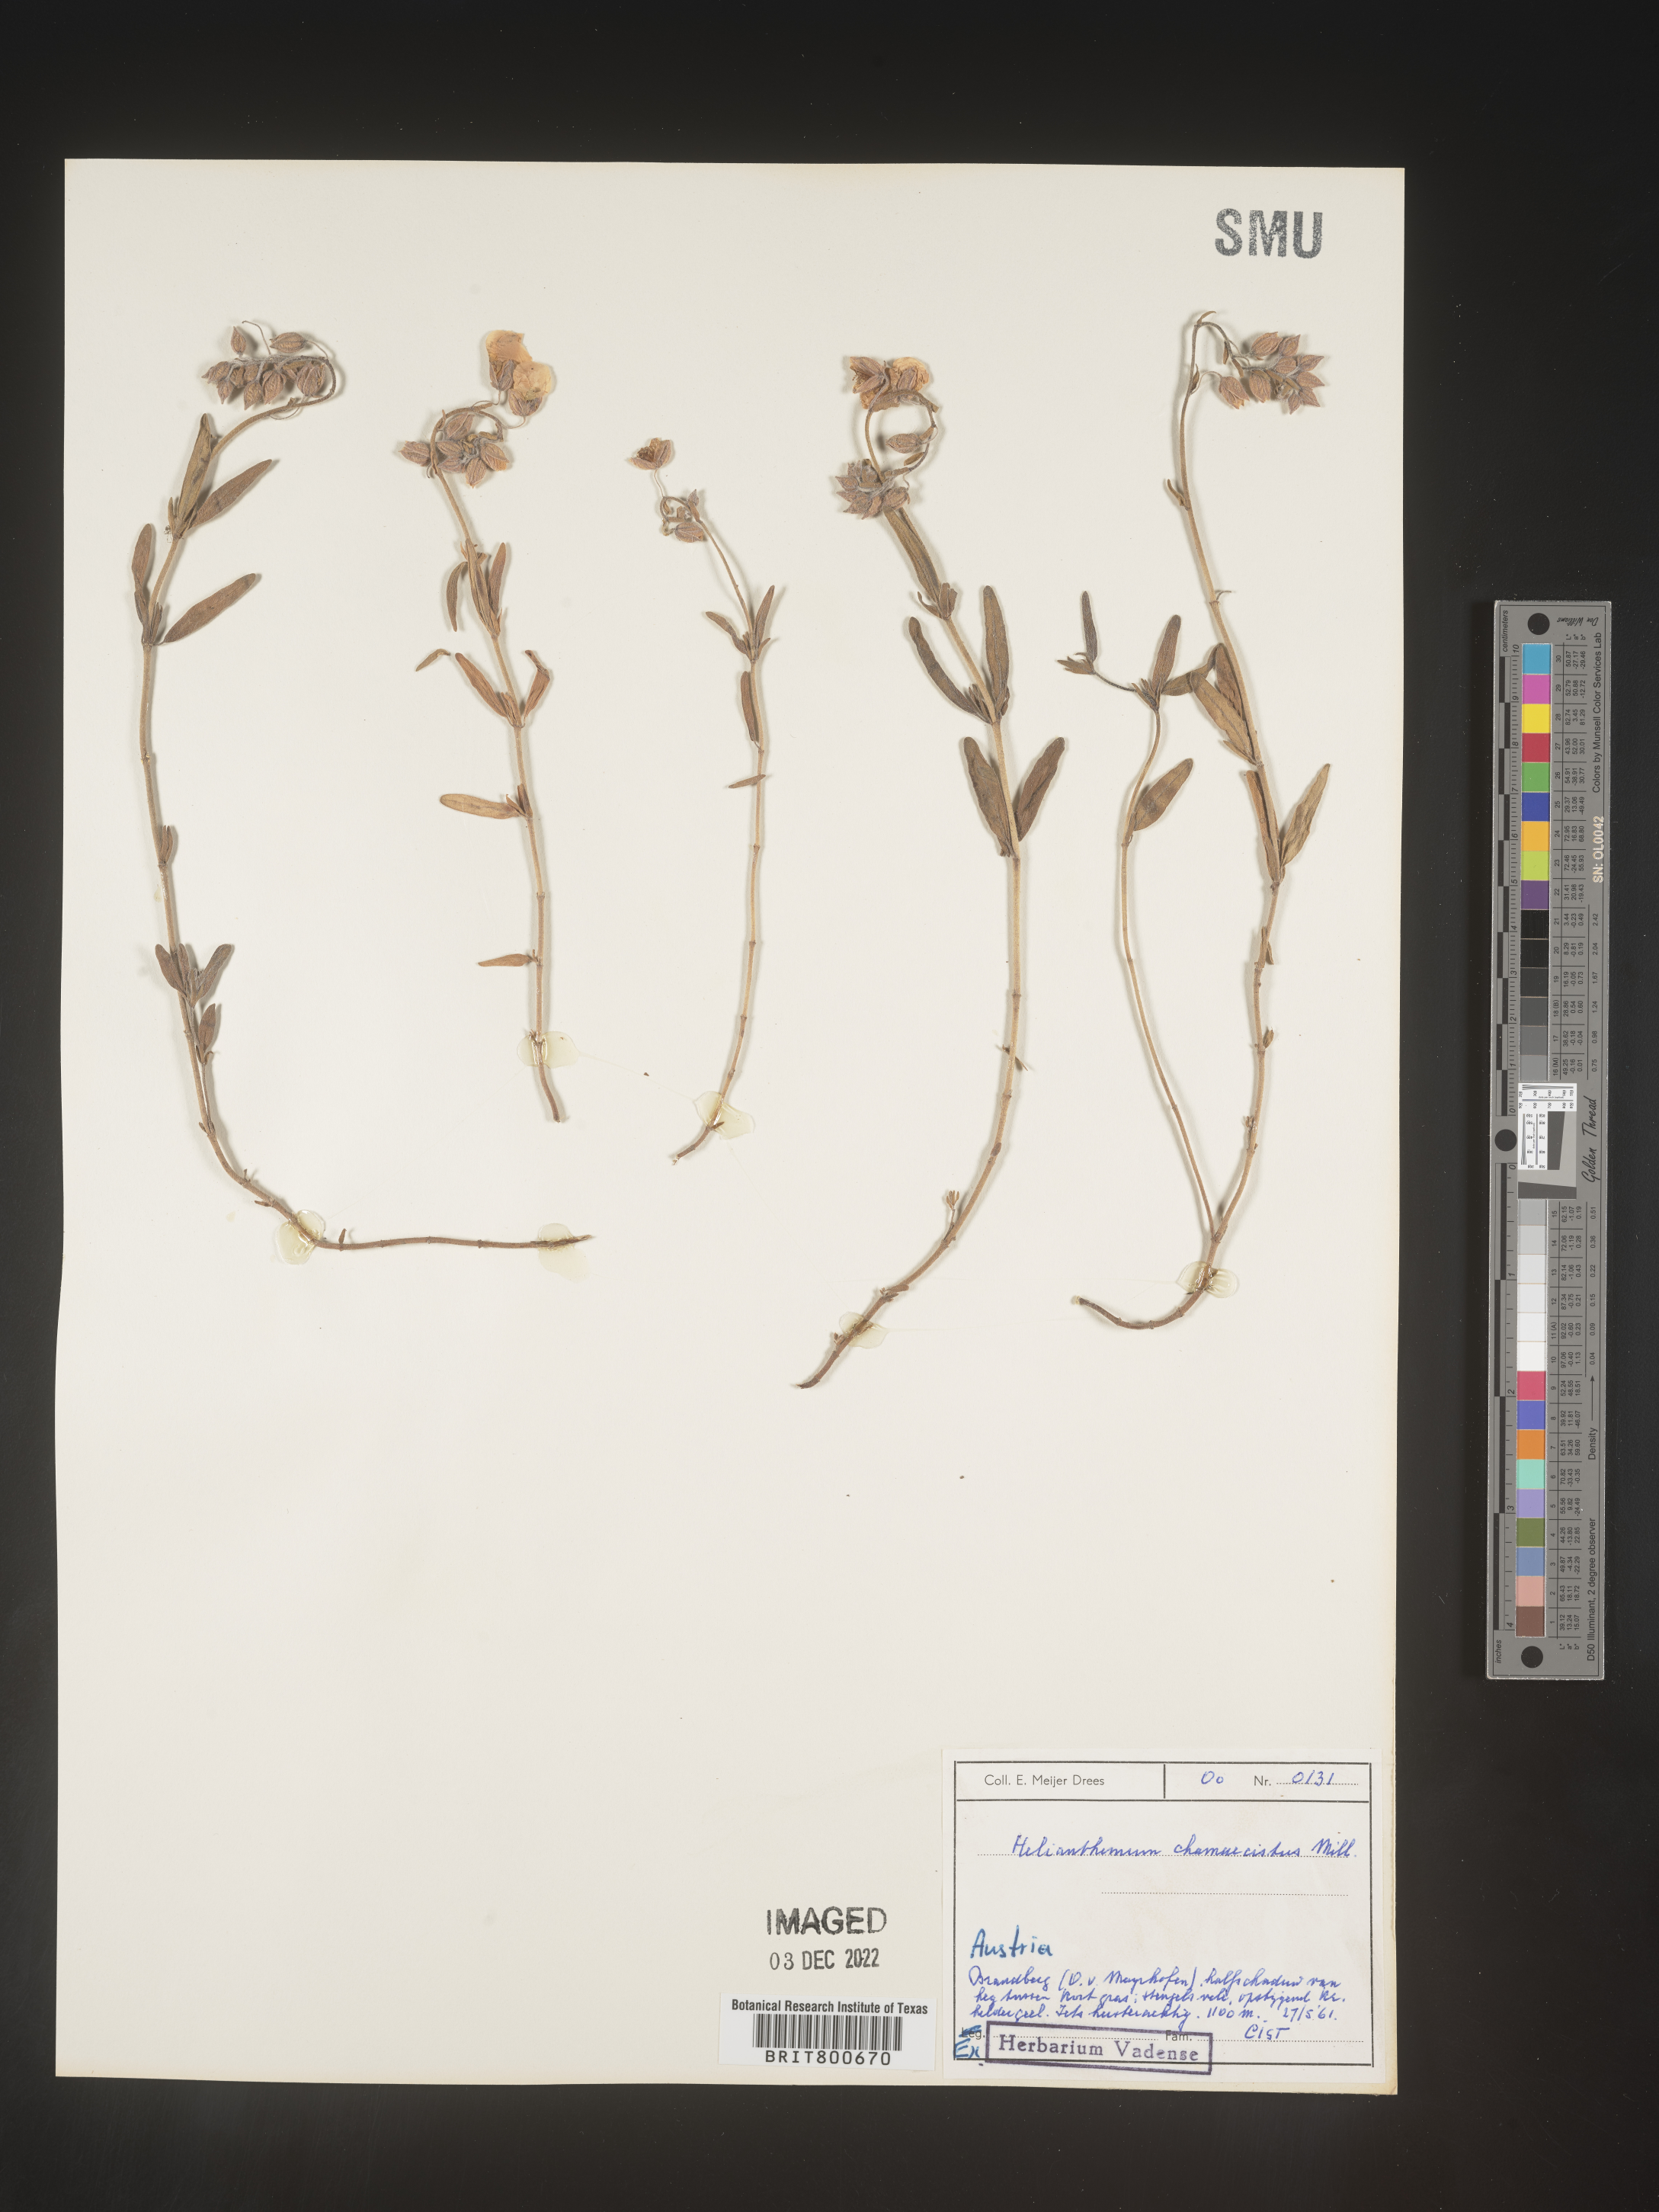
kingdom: Plantae
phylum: Tracheophyta
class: Magnoliopsida
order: Malvales
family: Cistaceae
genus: Helianthemum
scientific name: Helianthemum
